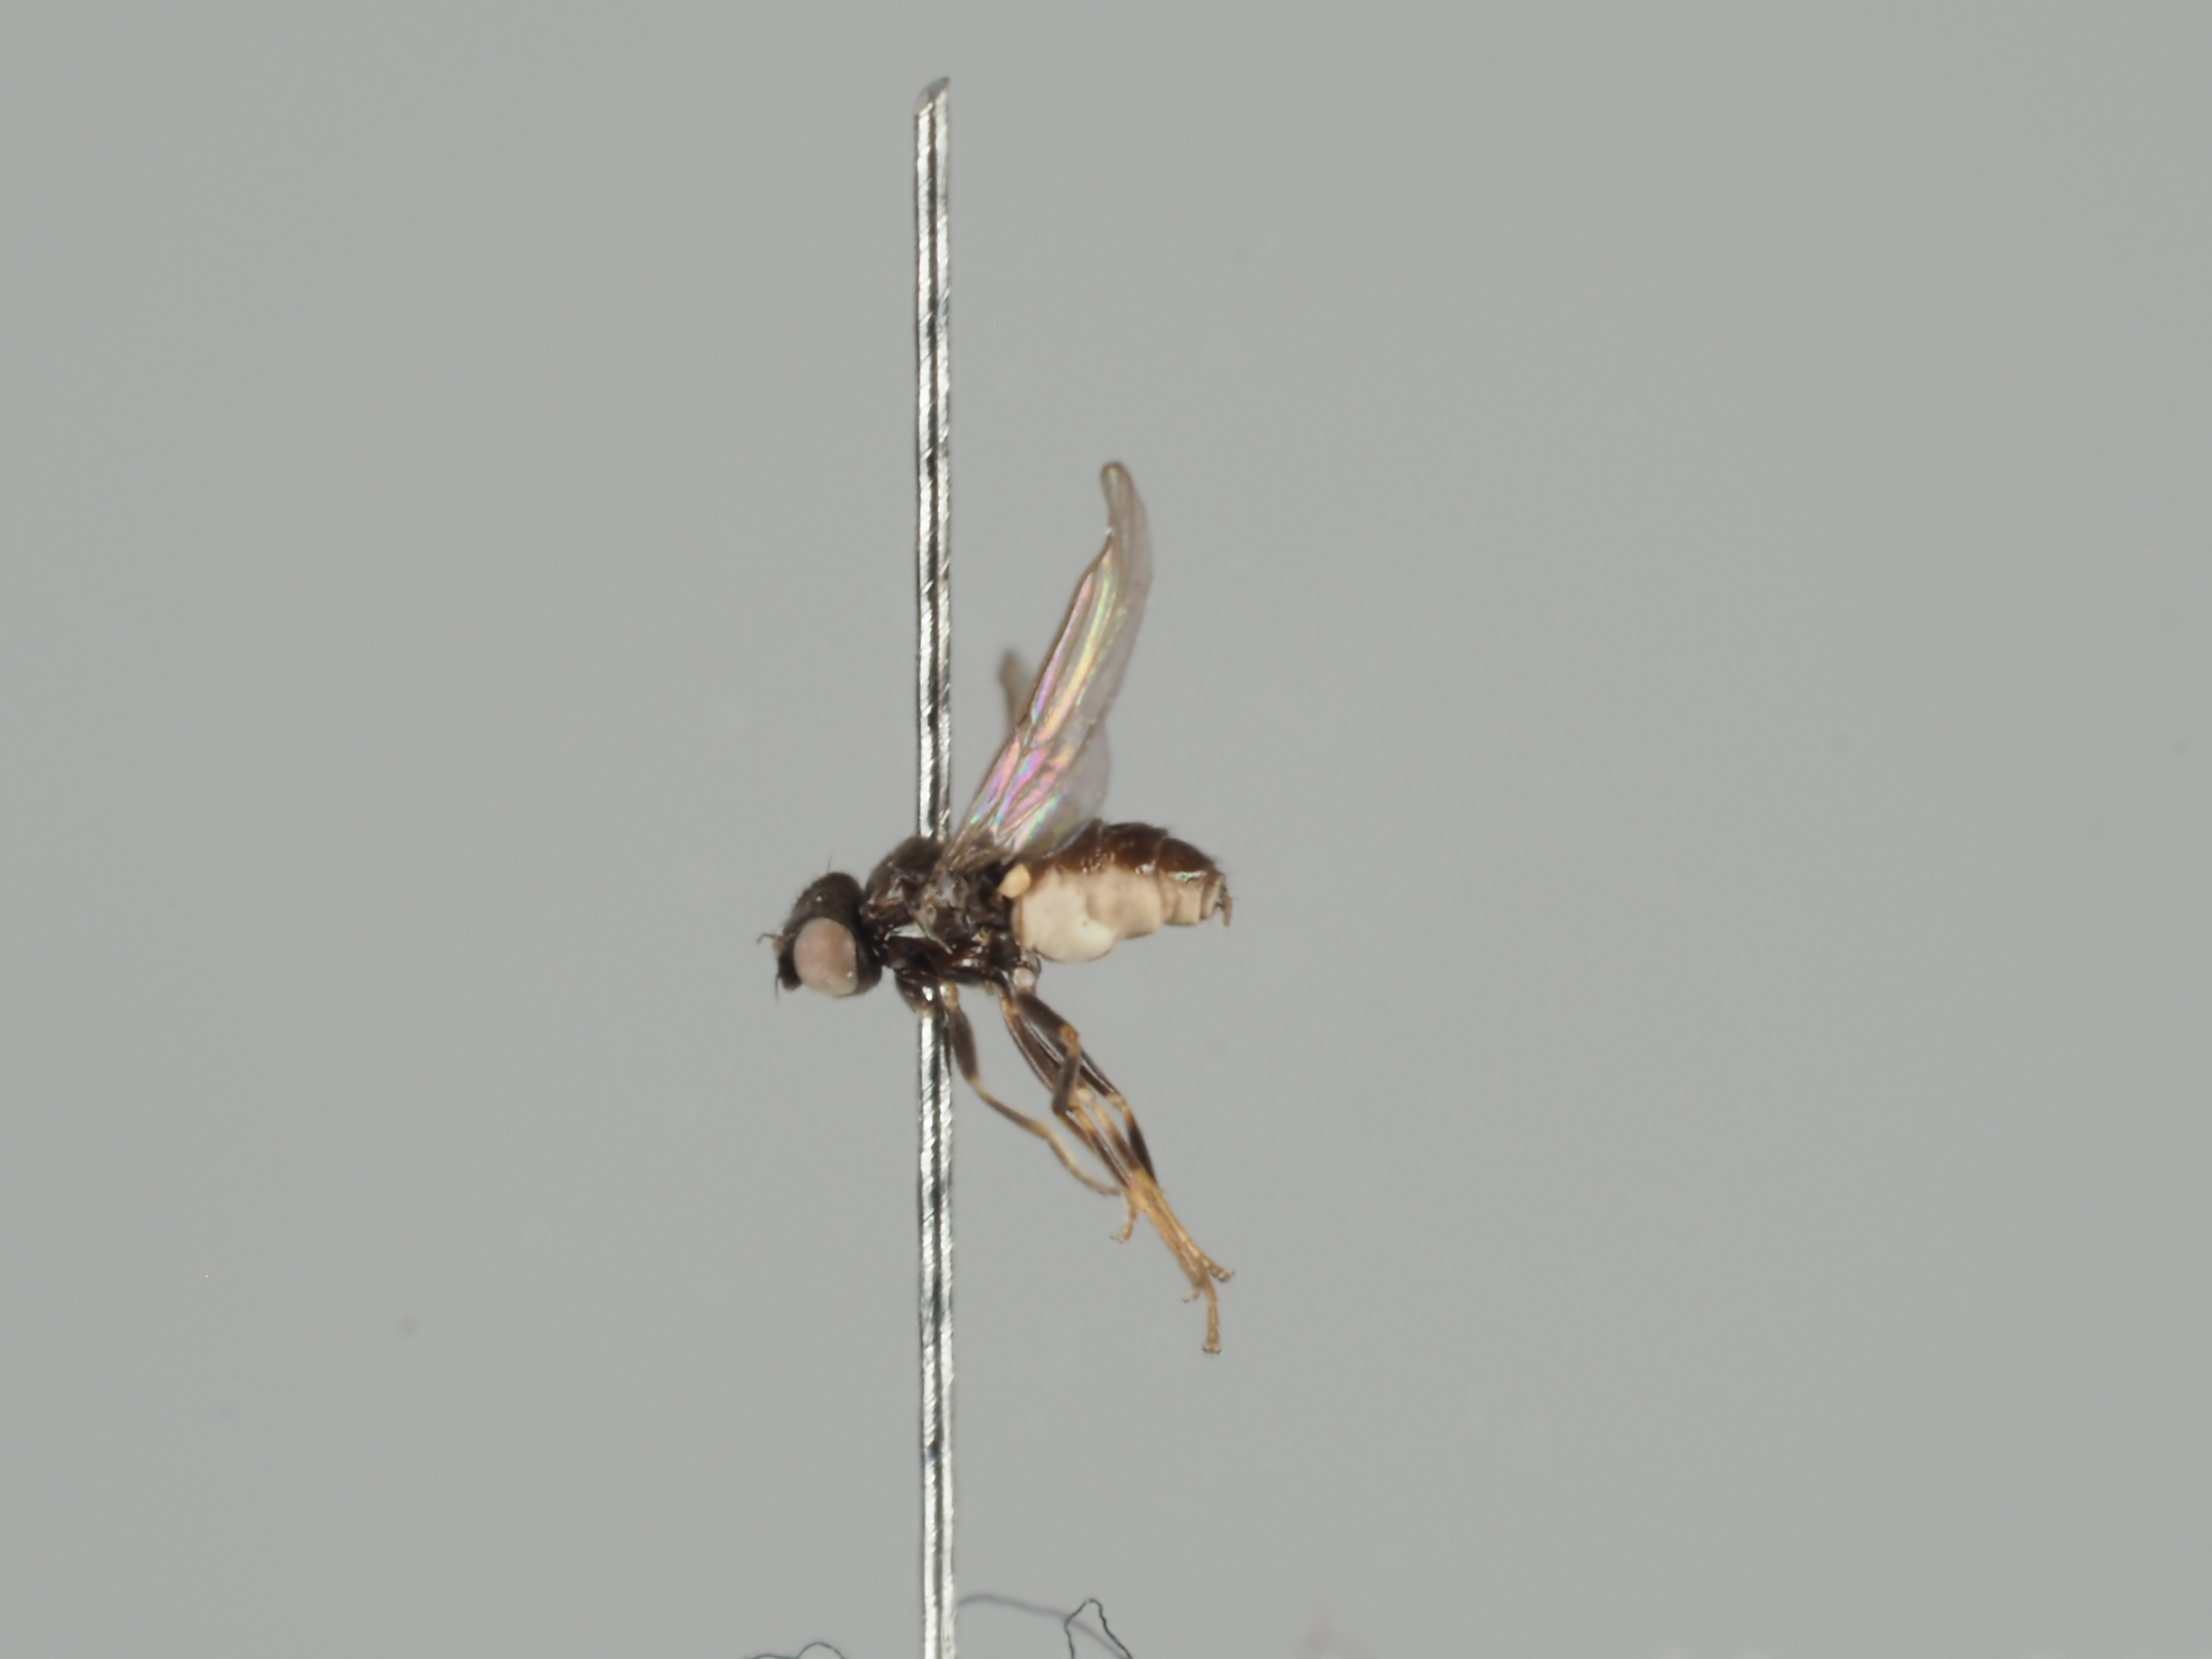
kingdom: Animalia
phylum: Arthropoda
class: Insecta
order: Diptera
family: Chloropidae
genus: Oscinella
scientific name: Oscinella cariciphila
